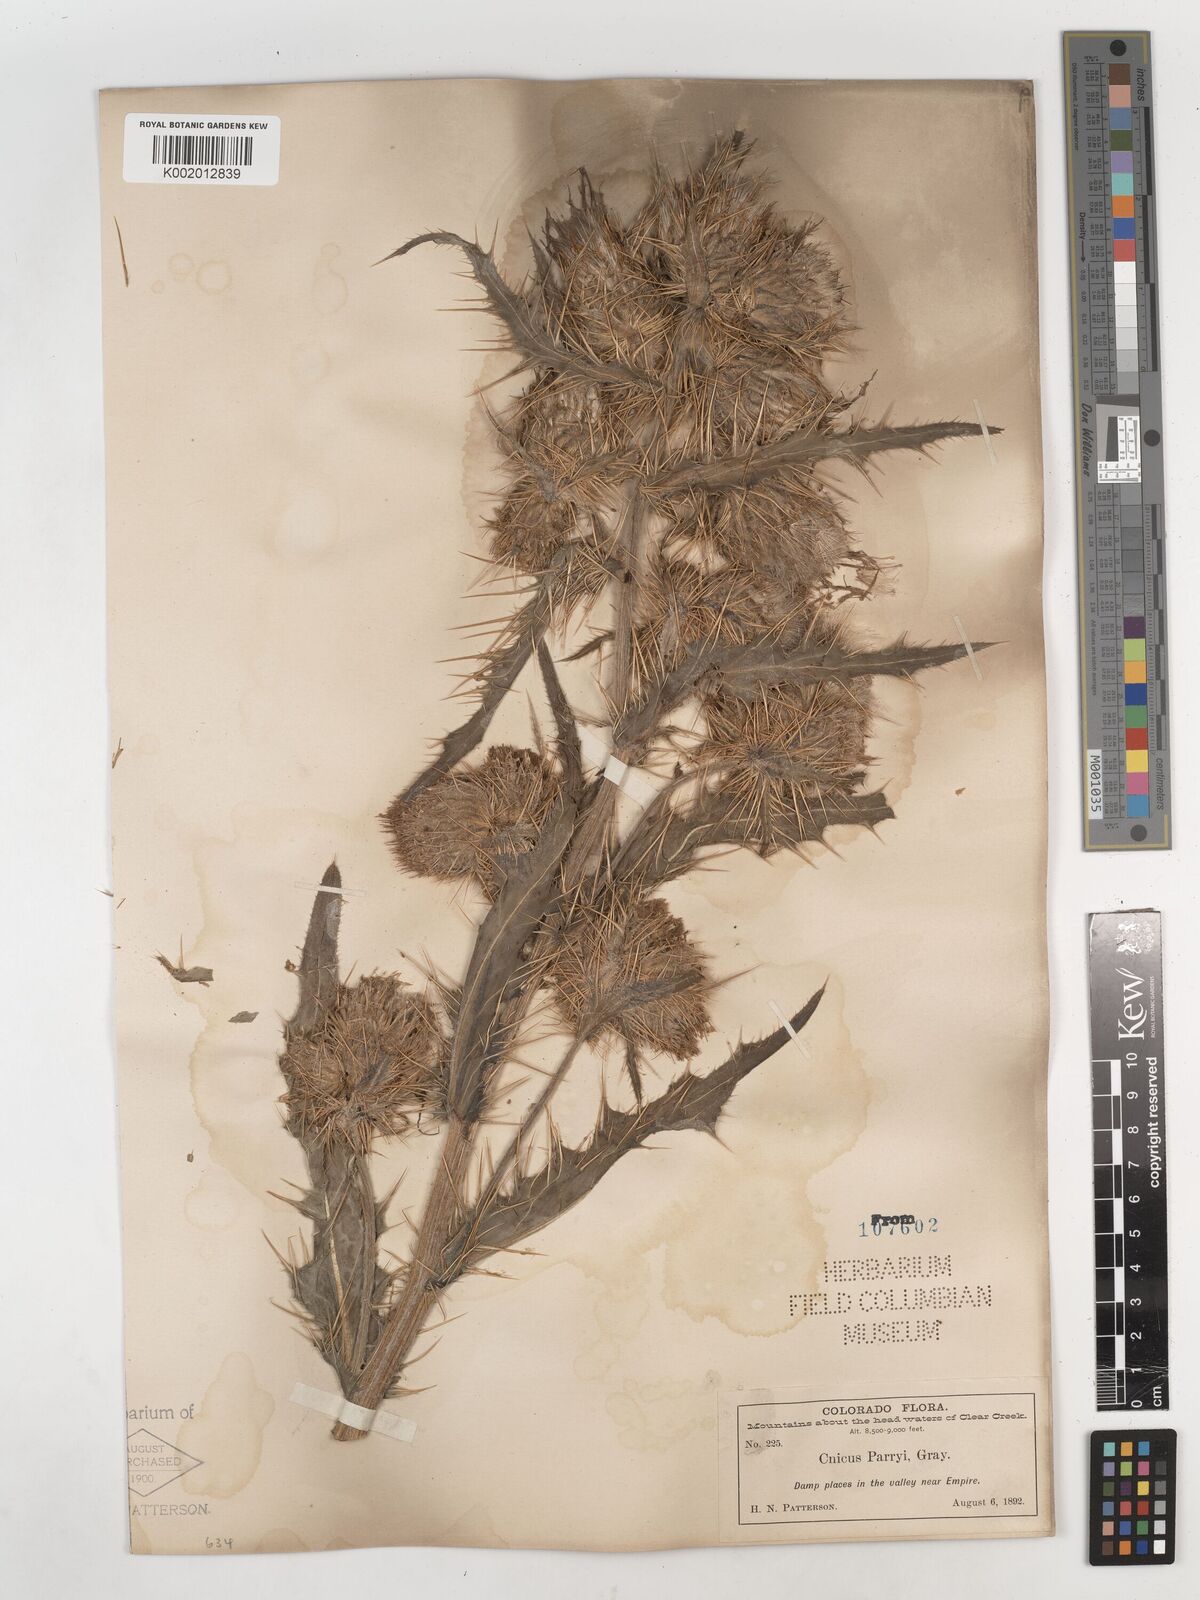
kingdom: Plantae
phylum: Tracheophyta
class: Magnoliopsida
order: Asterales
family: Asteraceae
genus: Cirsium
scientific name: Cirsium
